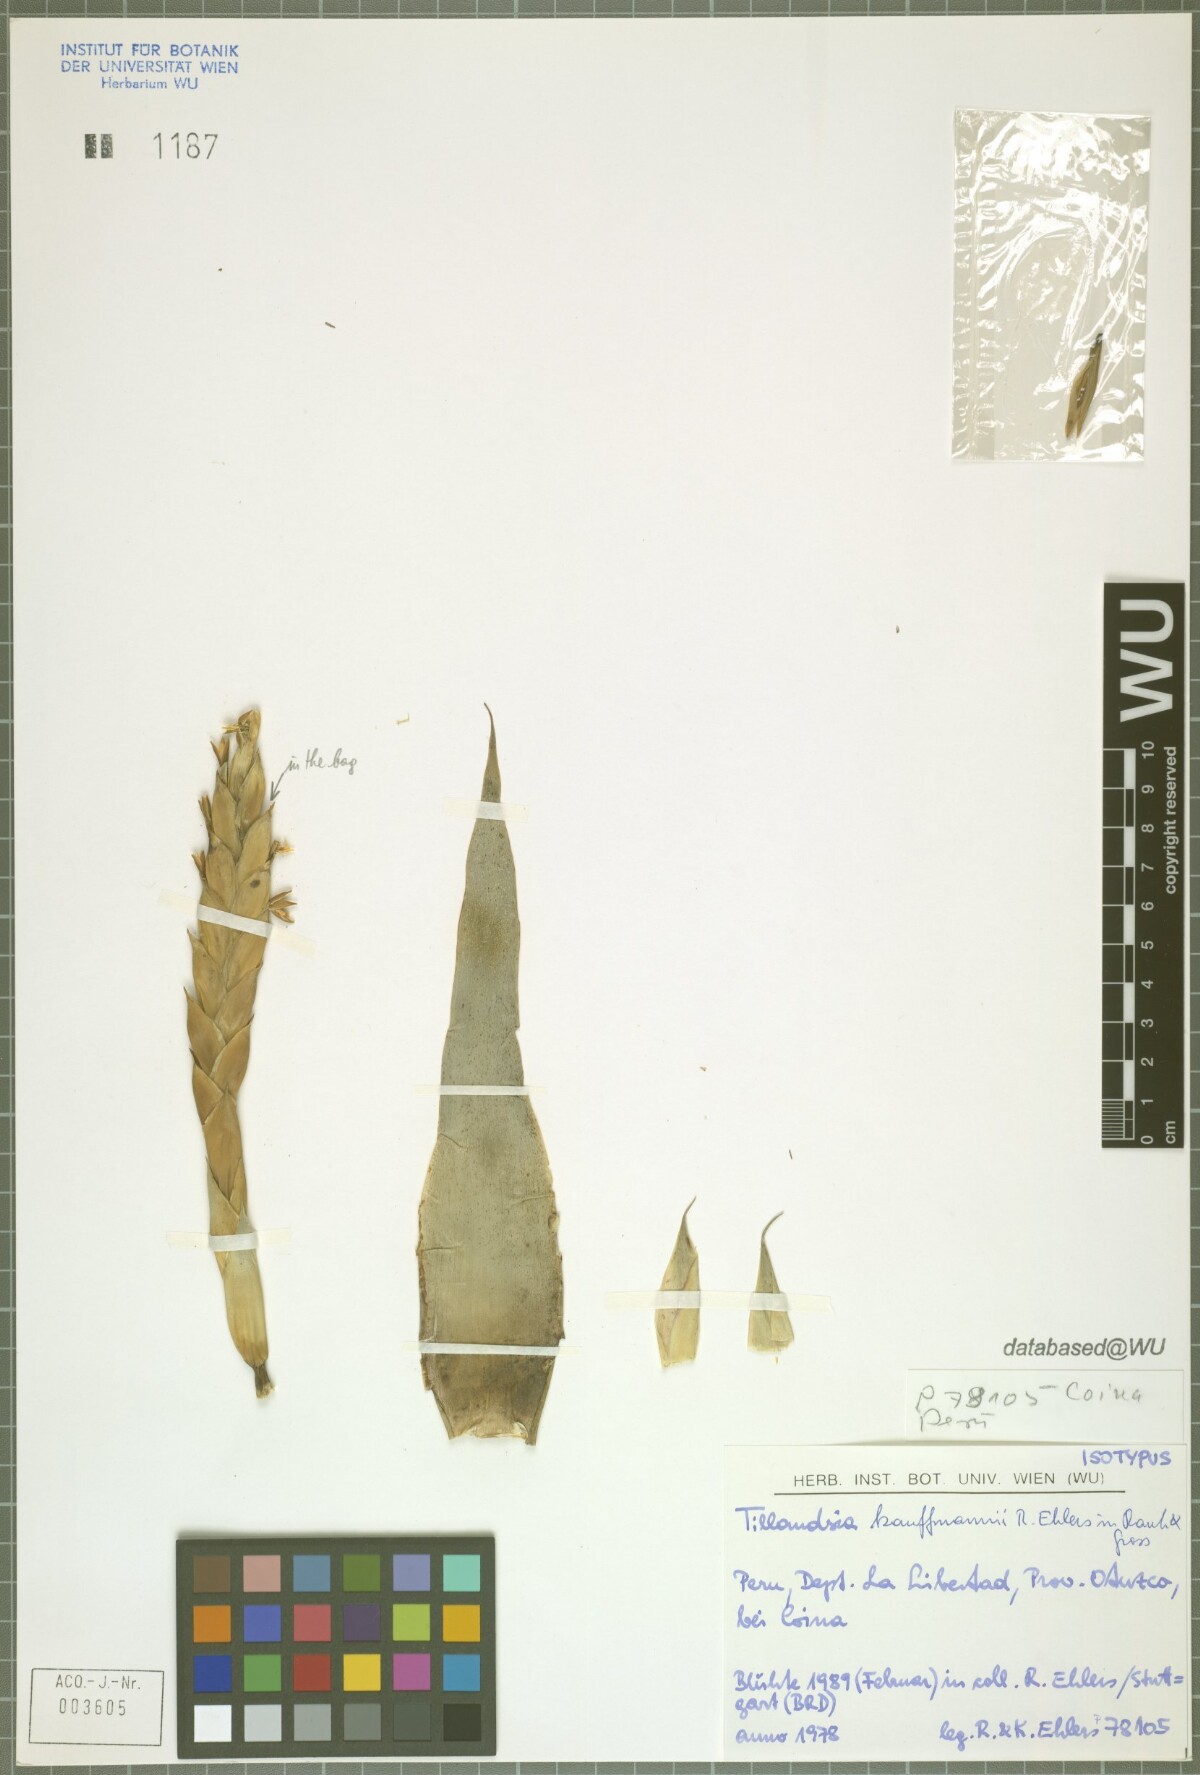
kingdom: Plantae
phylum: Tracheophyta
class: Liliopsida
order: Poales
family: Bromeliaceae
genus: Tillandsia
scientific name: Tillandsia kauffmannii
